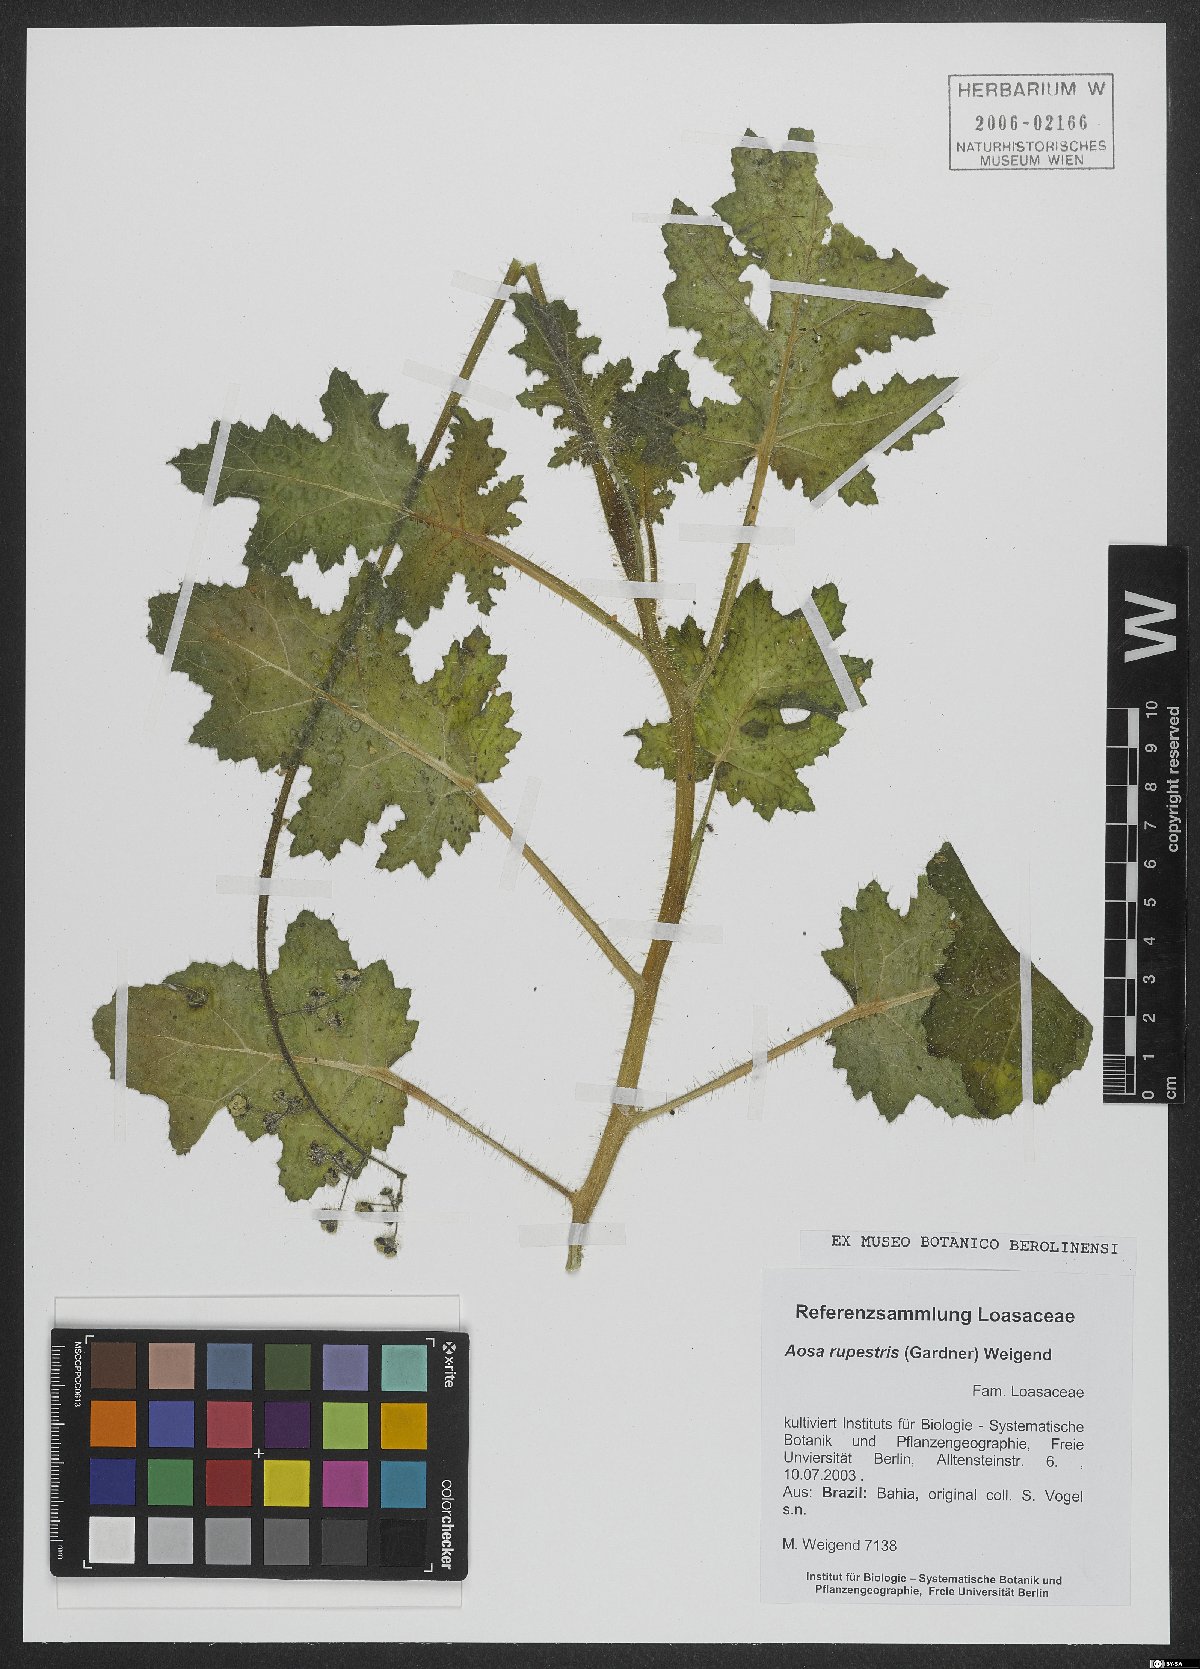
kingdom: Plantae
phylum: Tracheophyta
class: Magnoliopsida
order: Cornales
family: Loasaceae
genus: Aosa
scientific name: Aosa rupestris
